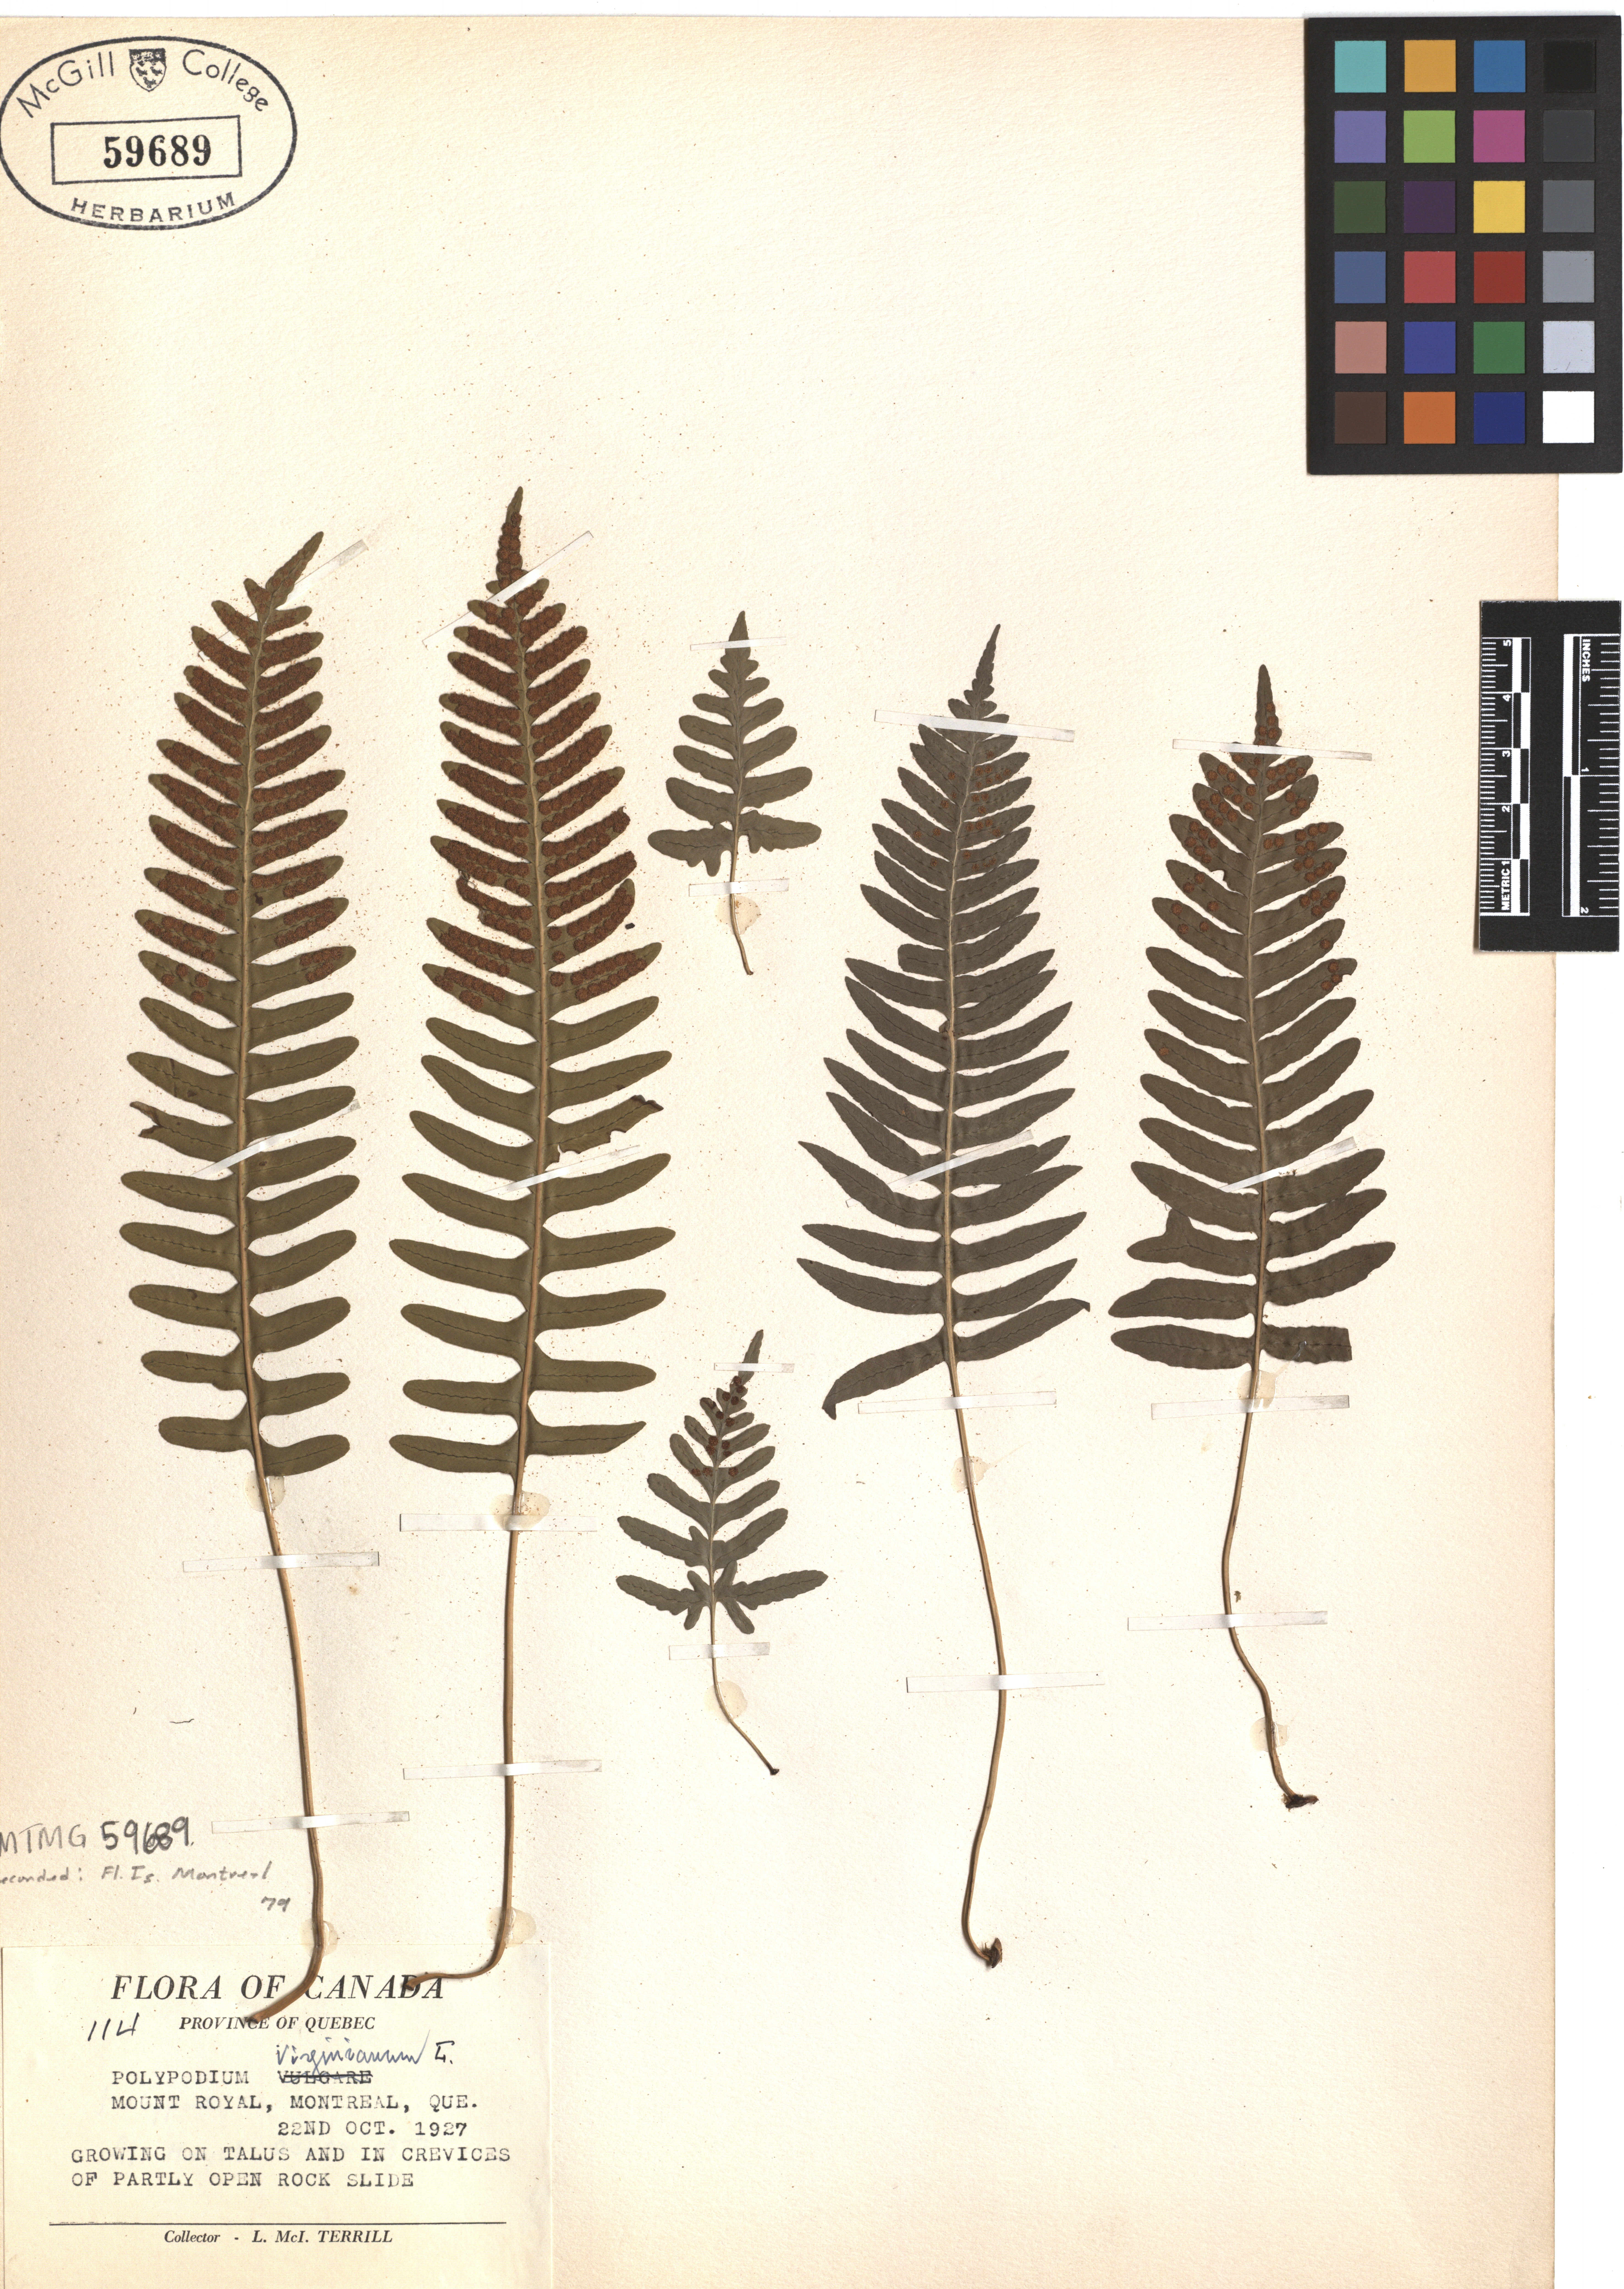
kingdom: Plantae
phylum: Tracheophyta
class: Polypodiopsida
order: Polypodiales
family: Polypodiaceae
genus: Polypodium
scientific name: Polypodium virginianum
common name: American wall fern
